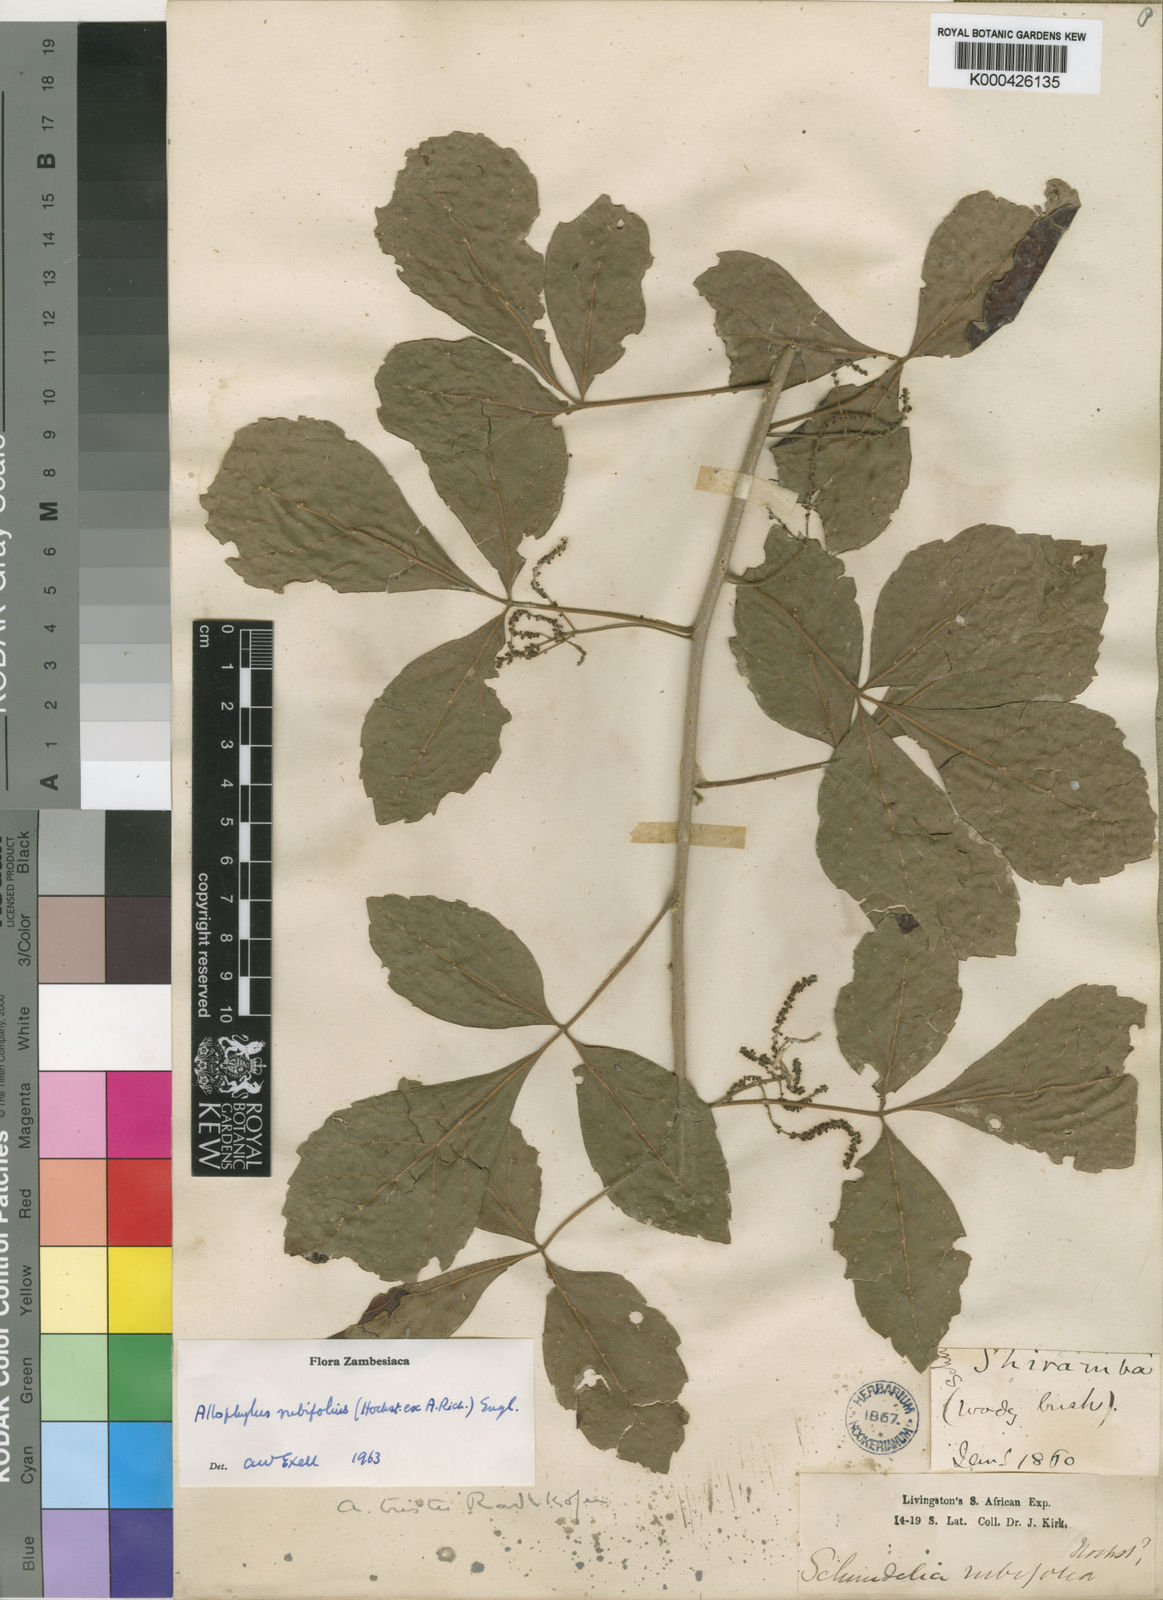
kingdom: Plantae
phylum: Tracheophyta
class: Magnoliopsida
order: Sapindales
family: Sapindaceae
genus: Allophylus
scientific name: Allophylus rubifolius
